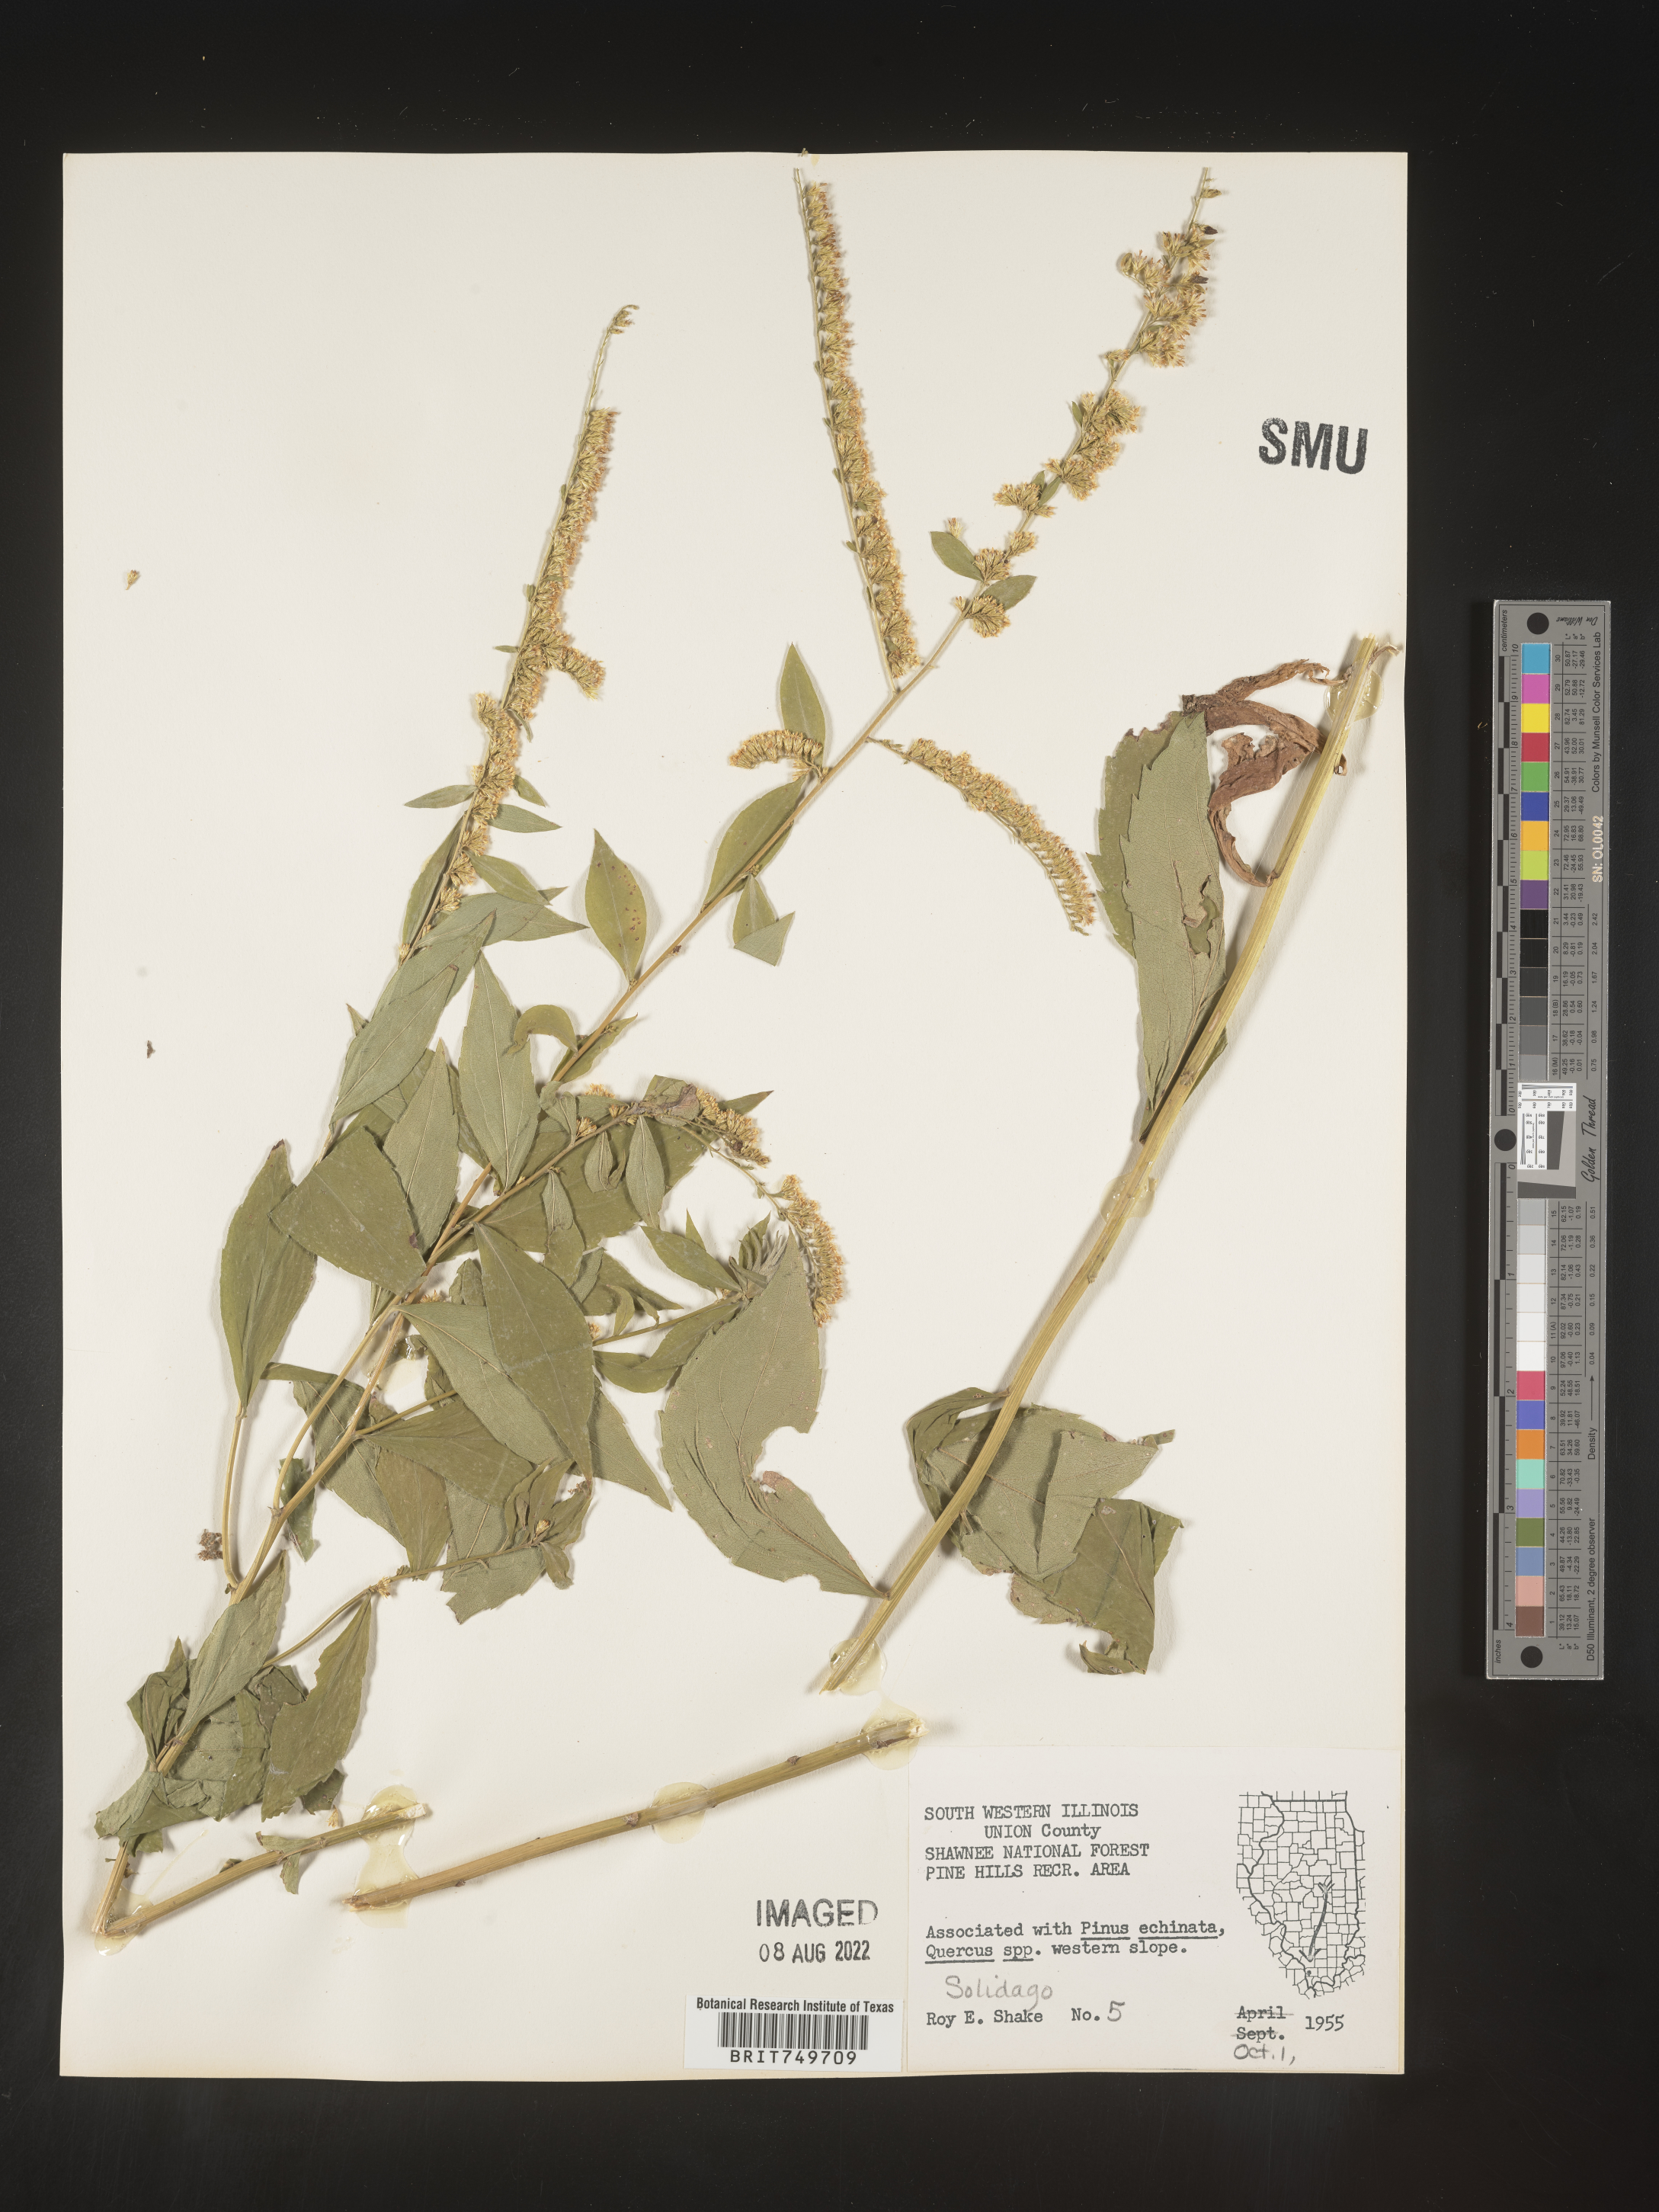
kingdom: Plantae
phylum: Tracheophyta
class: Magnoliopsida
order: Asterales
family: Asteraceae
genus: Solidago
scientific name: Solidago ulmifolia
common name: Elm-leaf goldenrod
